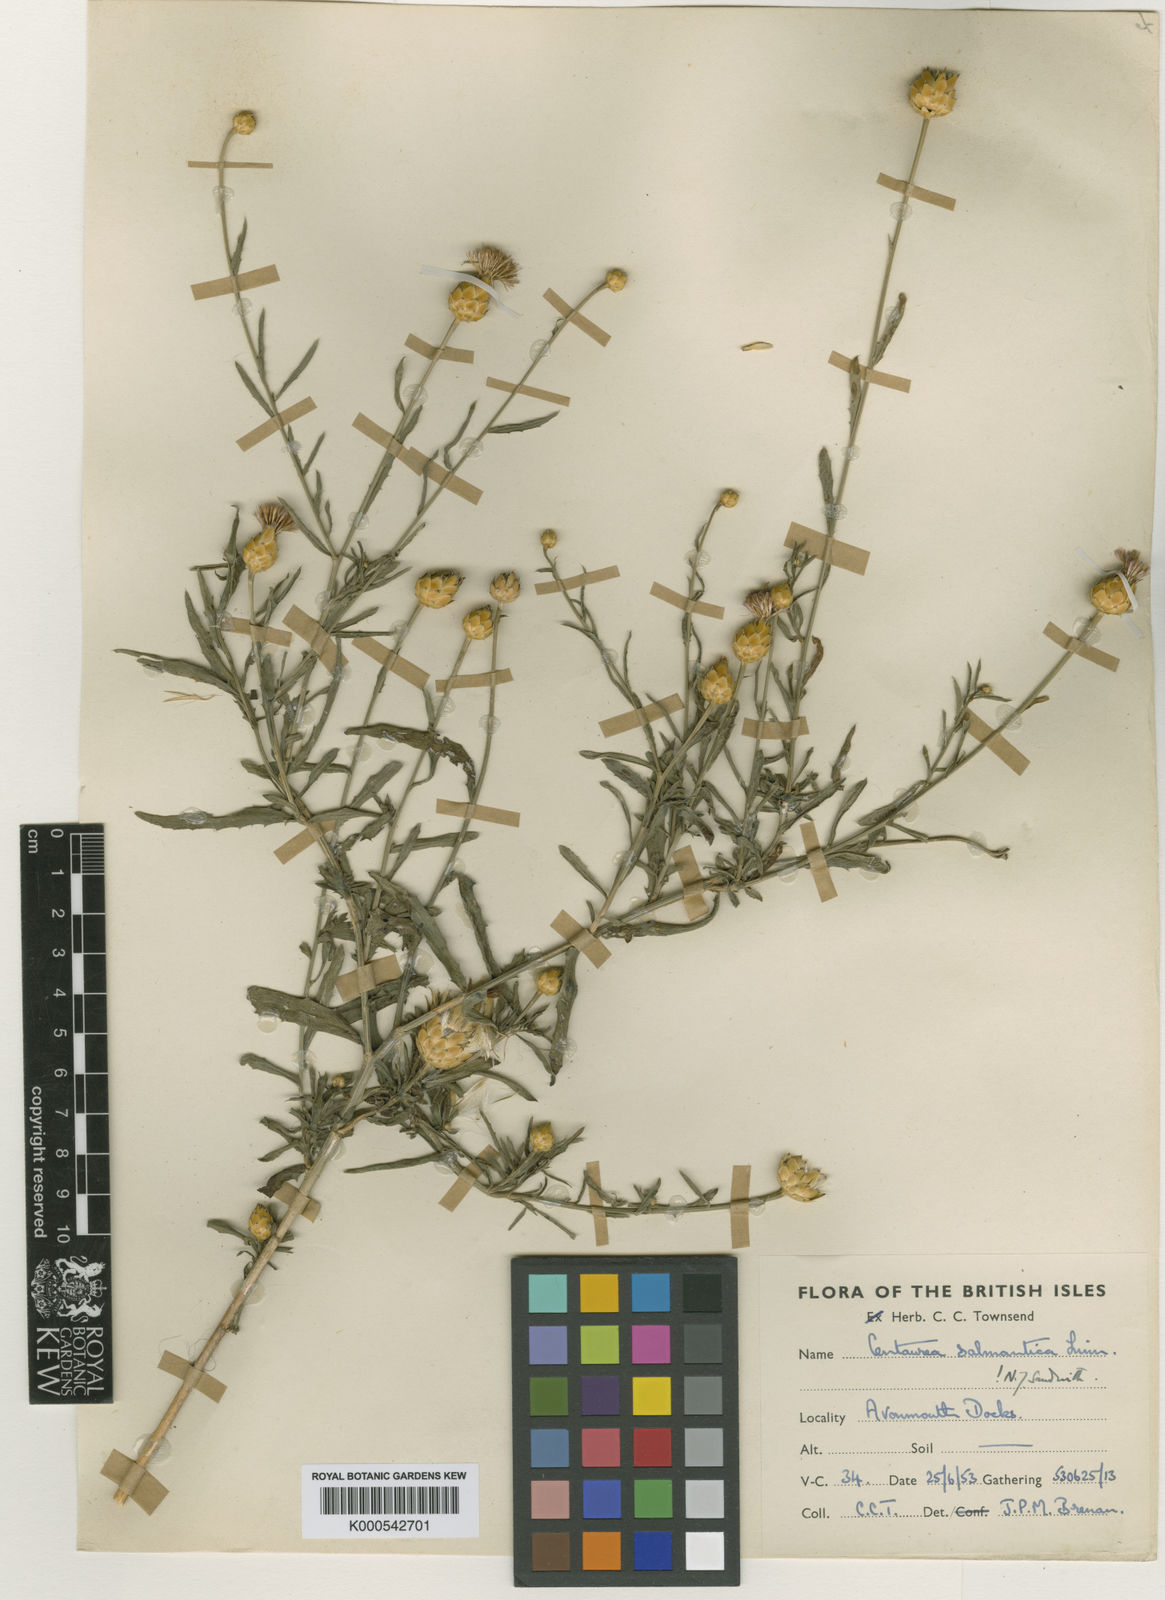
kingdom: Plantae
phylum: Tracheophyta
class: Magnoliopsida
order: Asterales
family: Asteraceae
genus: Mantisalca
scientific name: Mantisalca salmantica
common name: Dagger flower
